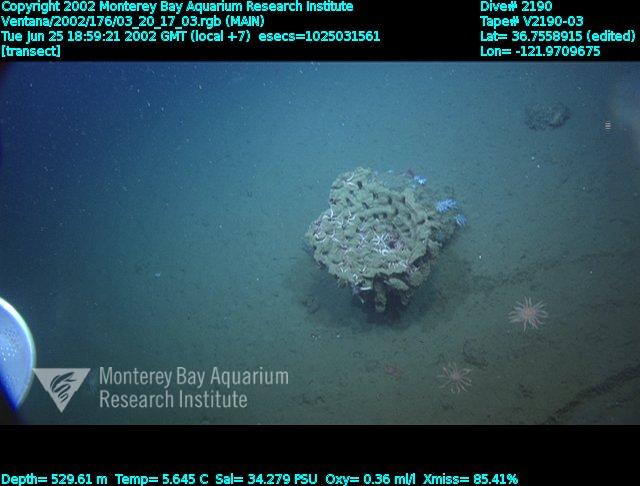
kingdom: Animalia
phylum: Porifera
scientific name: Porifera
